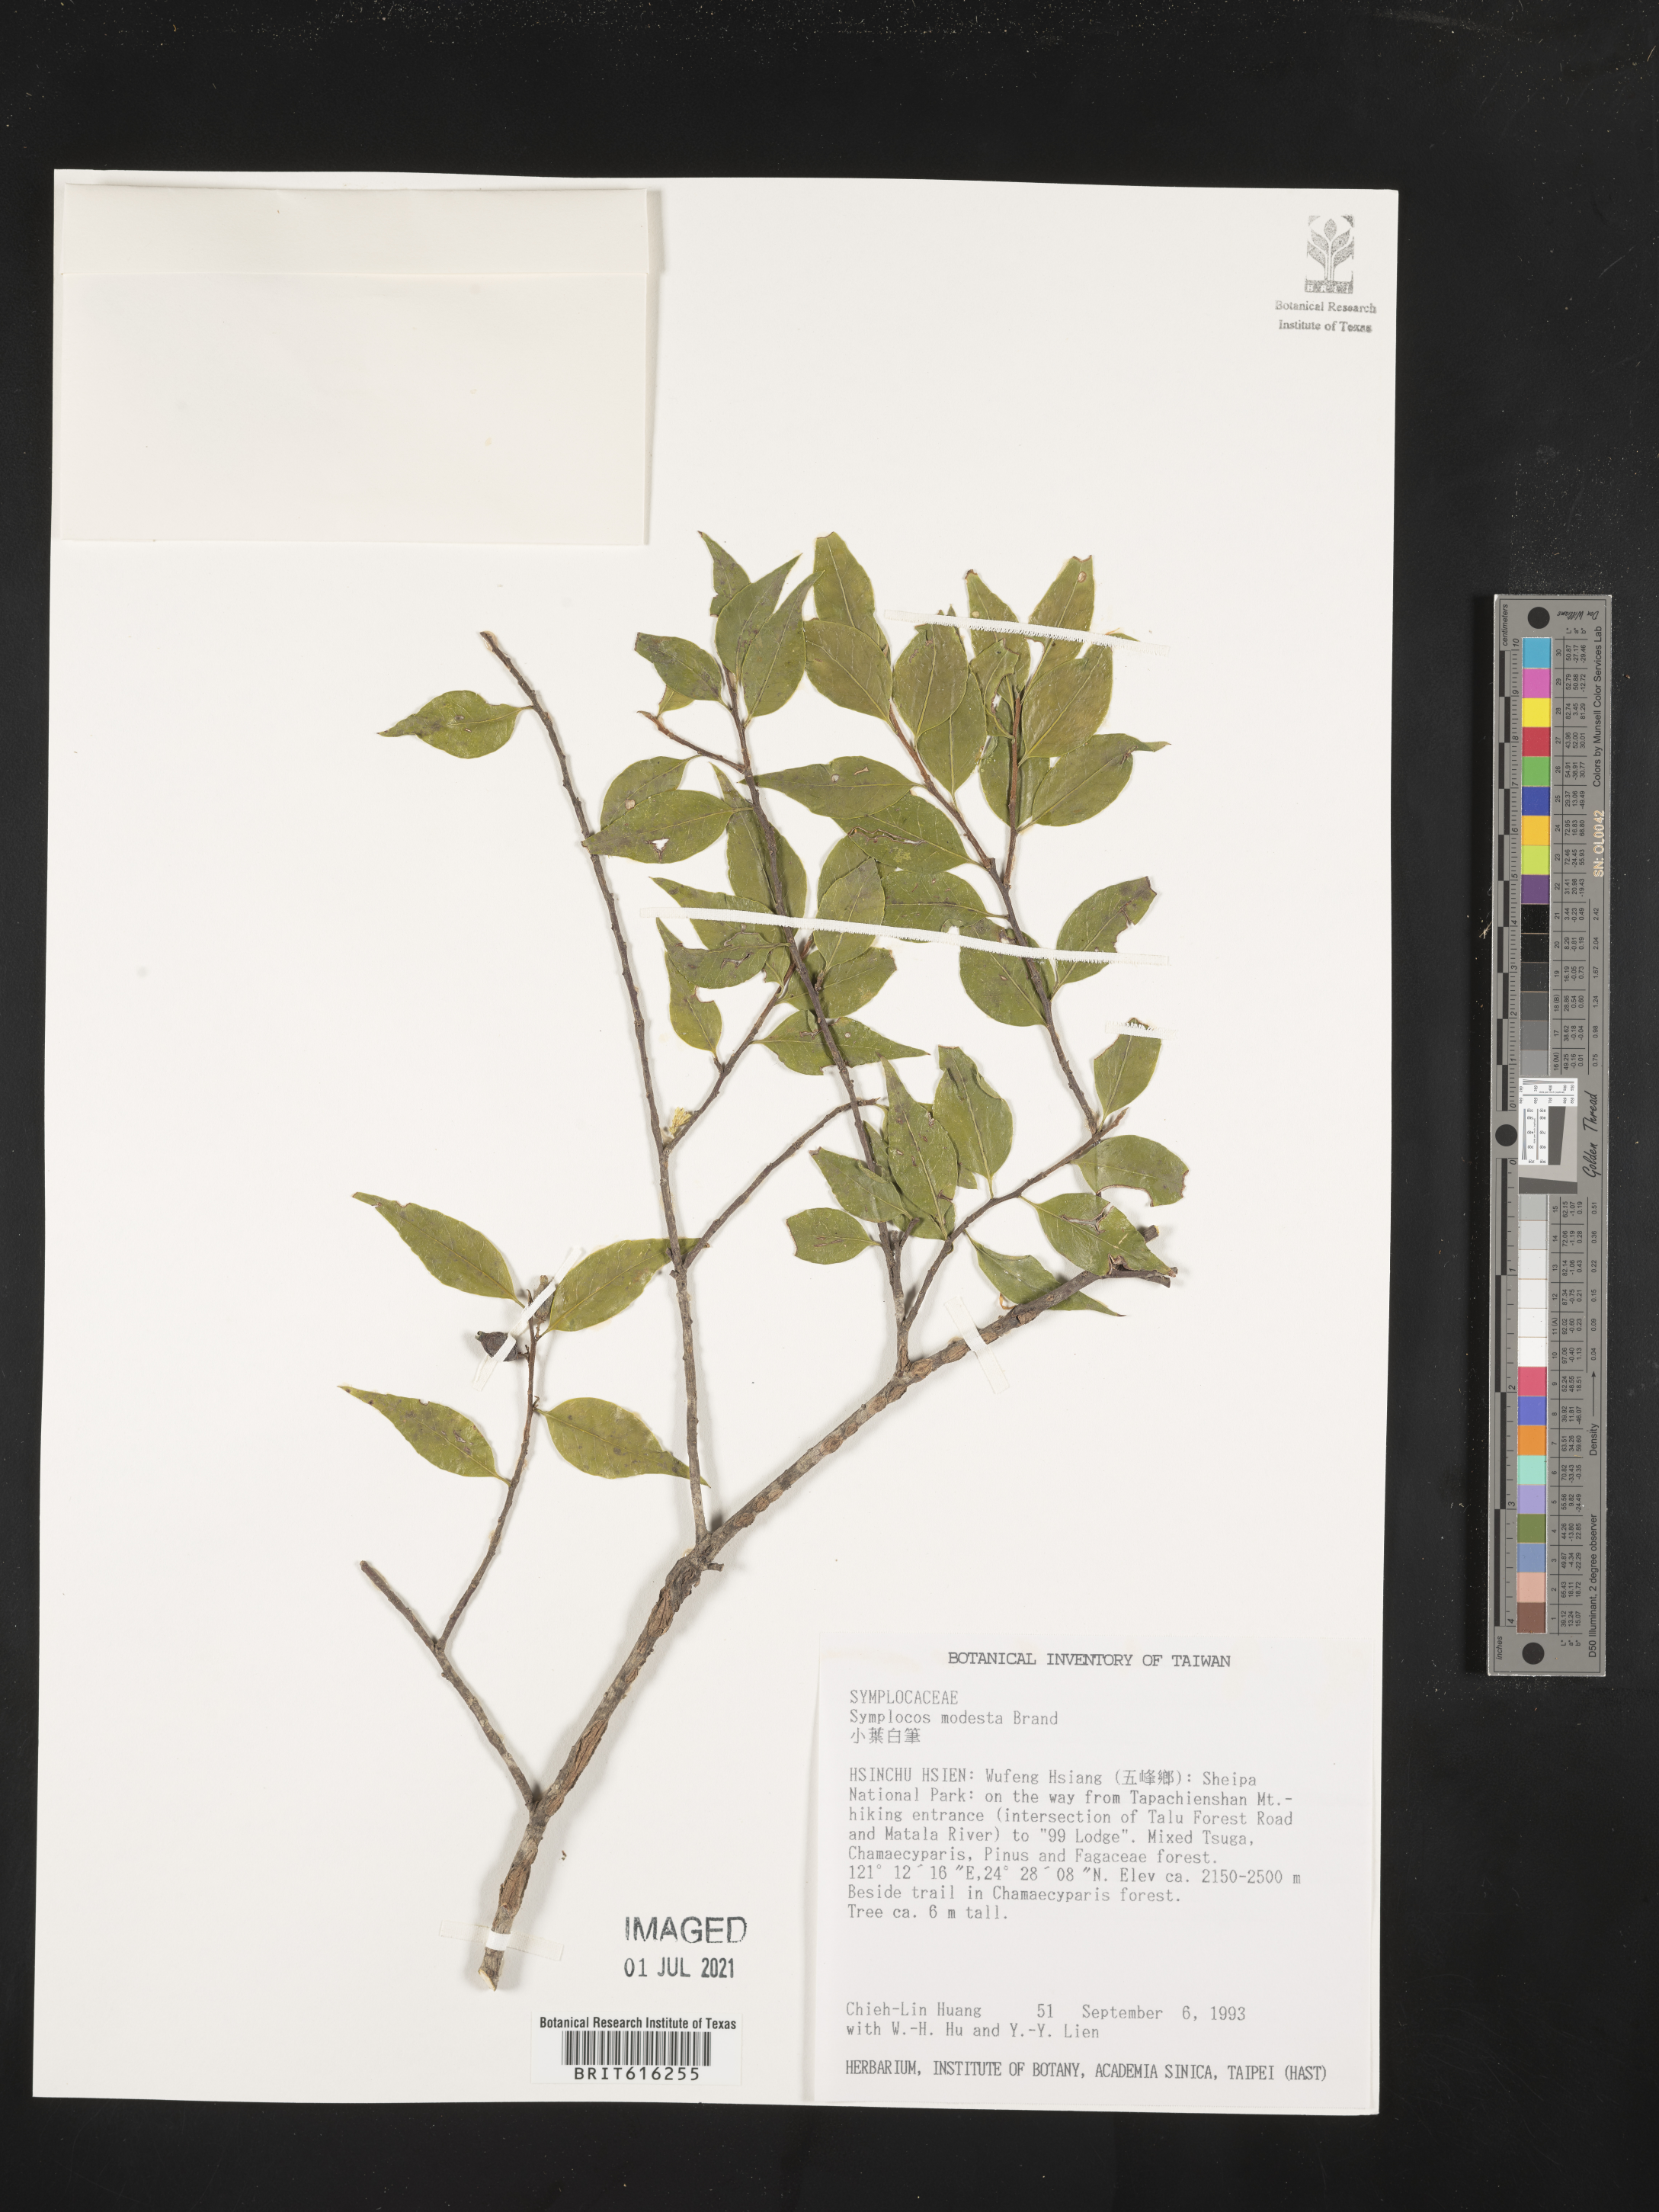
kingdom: Plantae
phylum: Tracheophyta
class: Magnoliopsida
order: Ericales
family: Symplocaceae
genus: Symplocos
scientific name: Symplocos sumuntia
